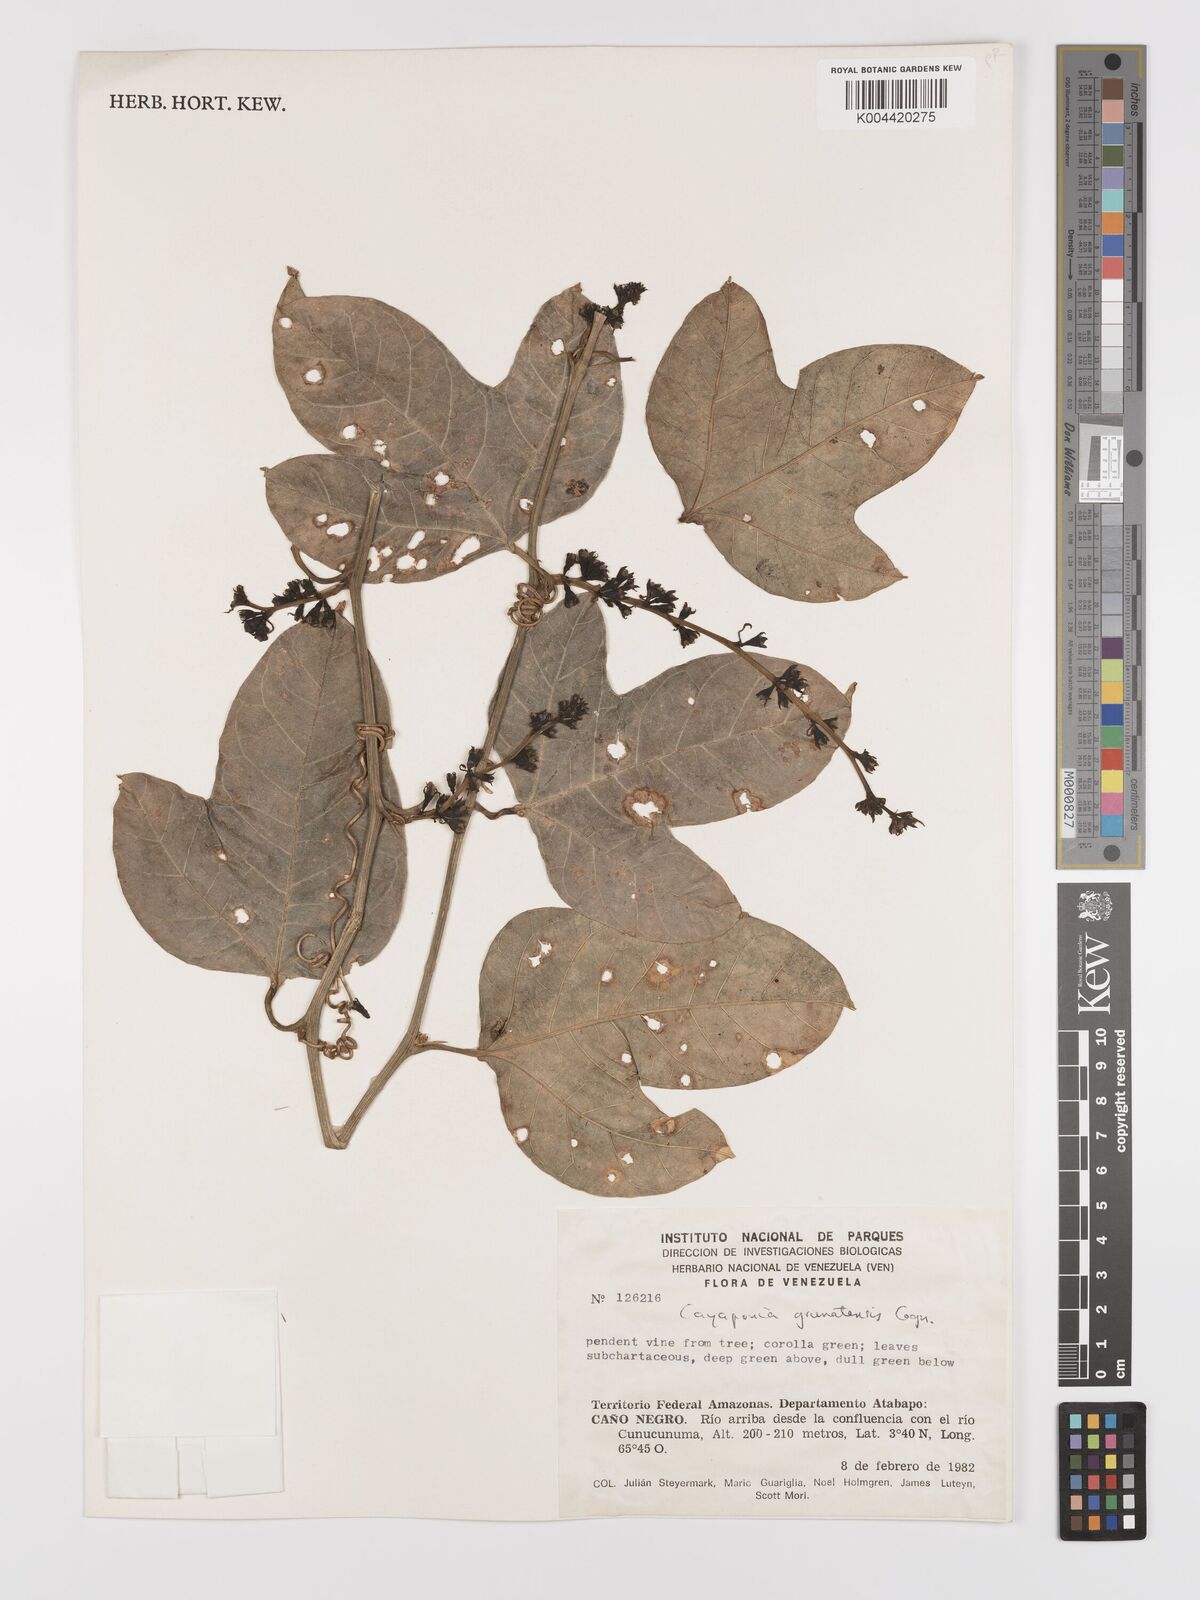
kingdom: Plantae
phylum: Tracheophyta
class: Magnoliopsida
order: Cucurbitales
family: Cucurbitaceae
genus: Cayaponia
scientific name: Cayaponia granatensis
